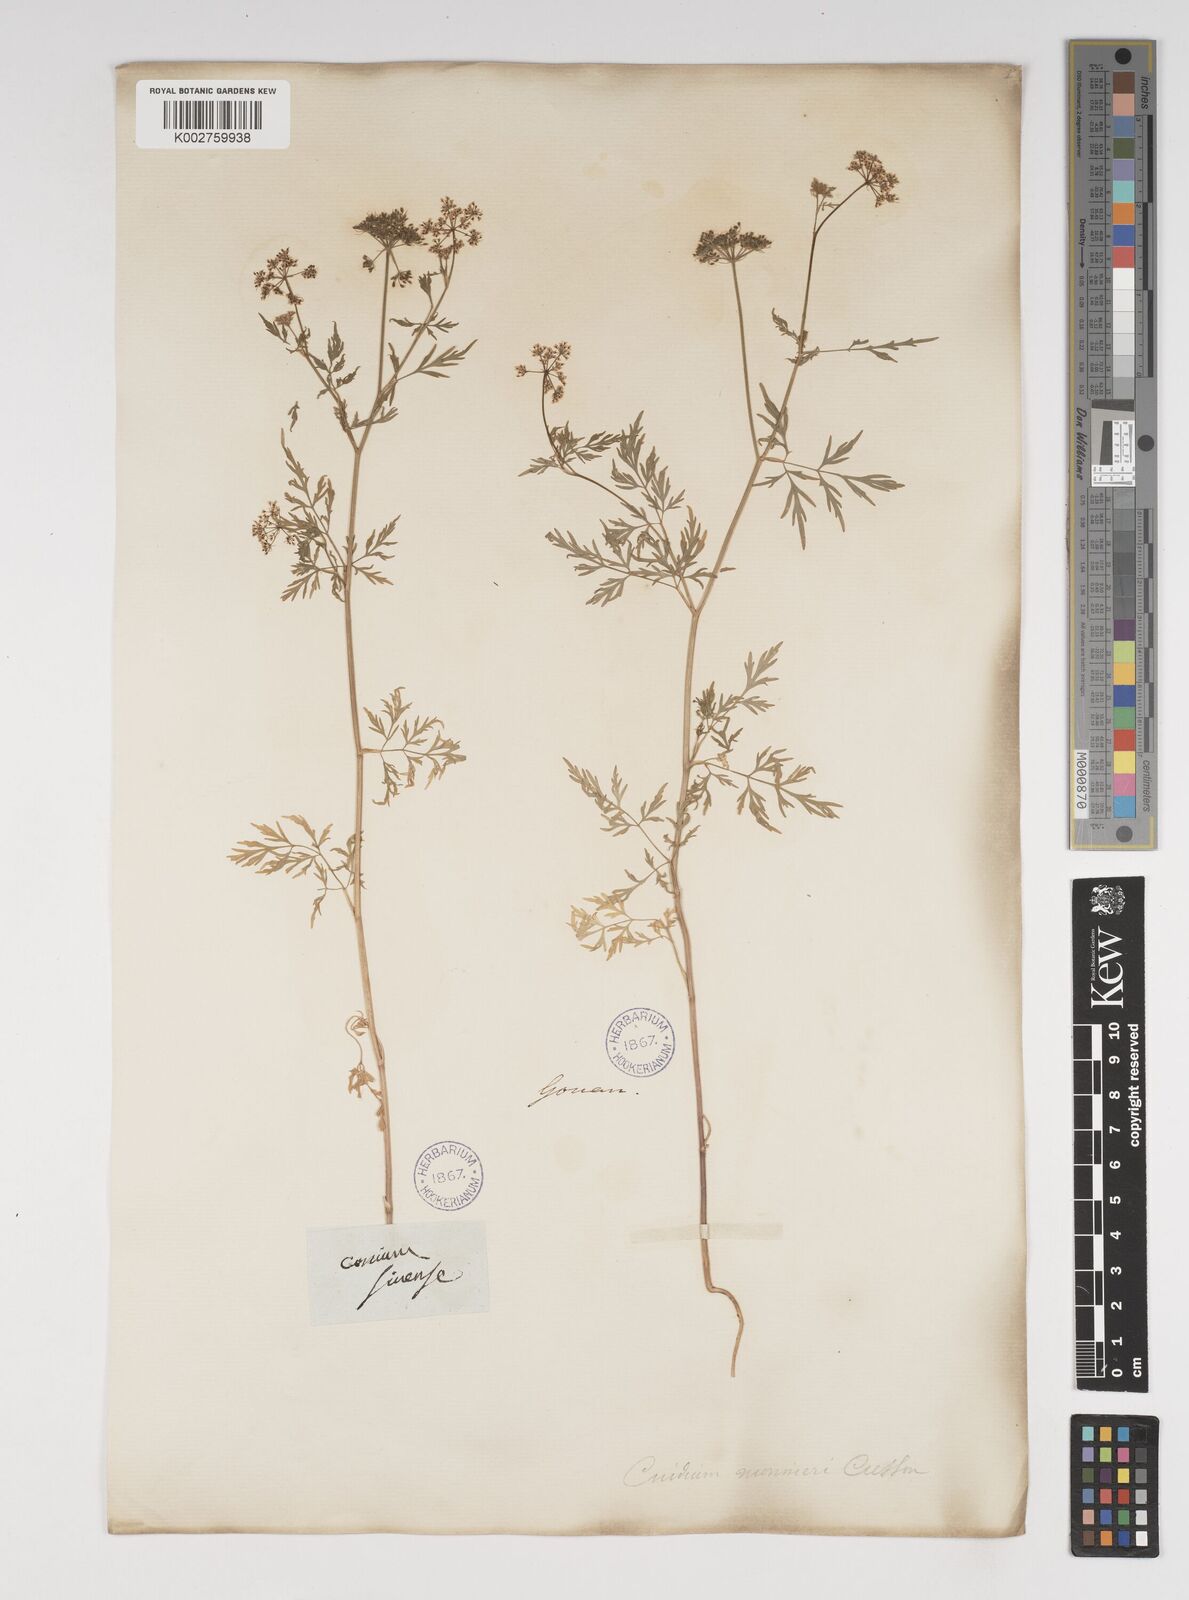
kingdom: Plantae
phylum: Tracheophyta
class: Magnoliopsida
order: Apiales
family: Apiaceae
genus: Cnidium
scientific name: Cnidium monnieri
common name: Monnier's snowparsley
